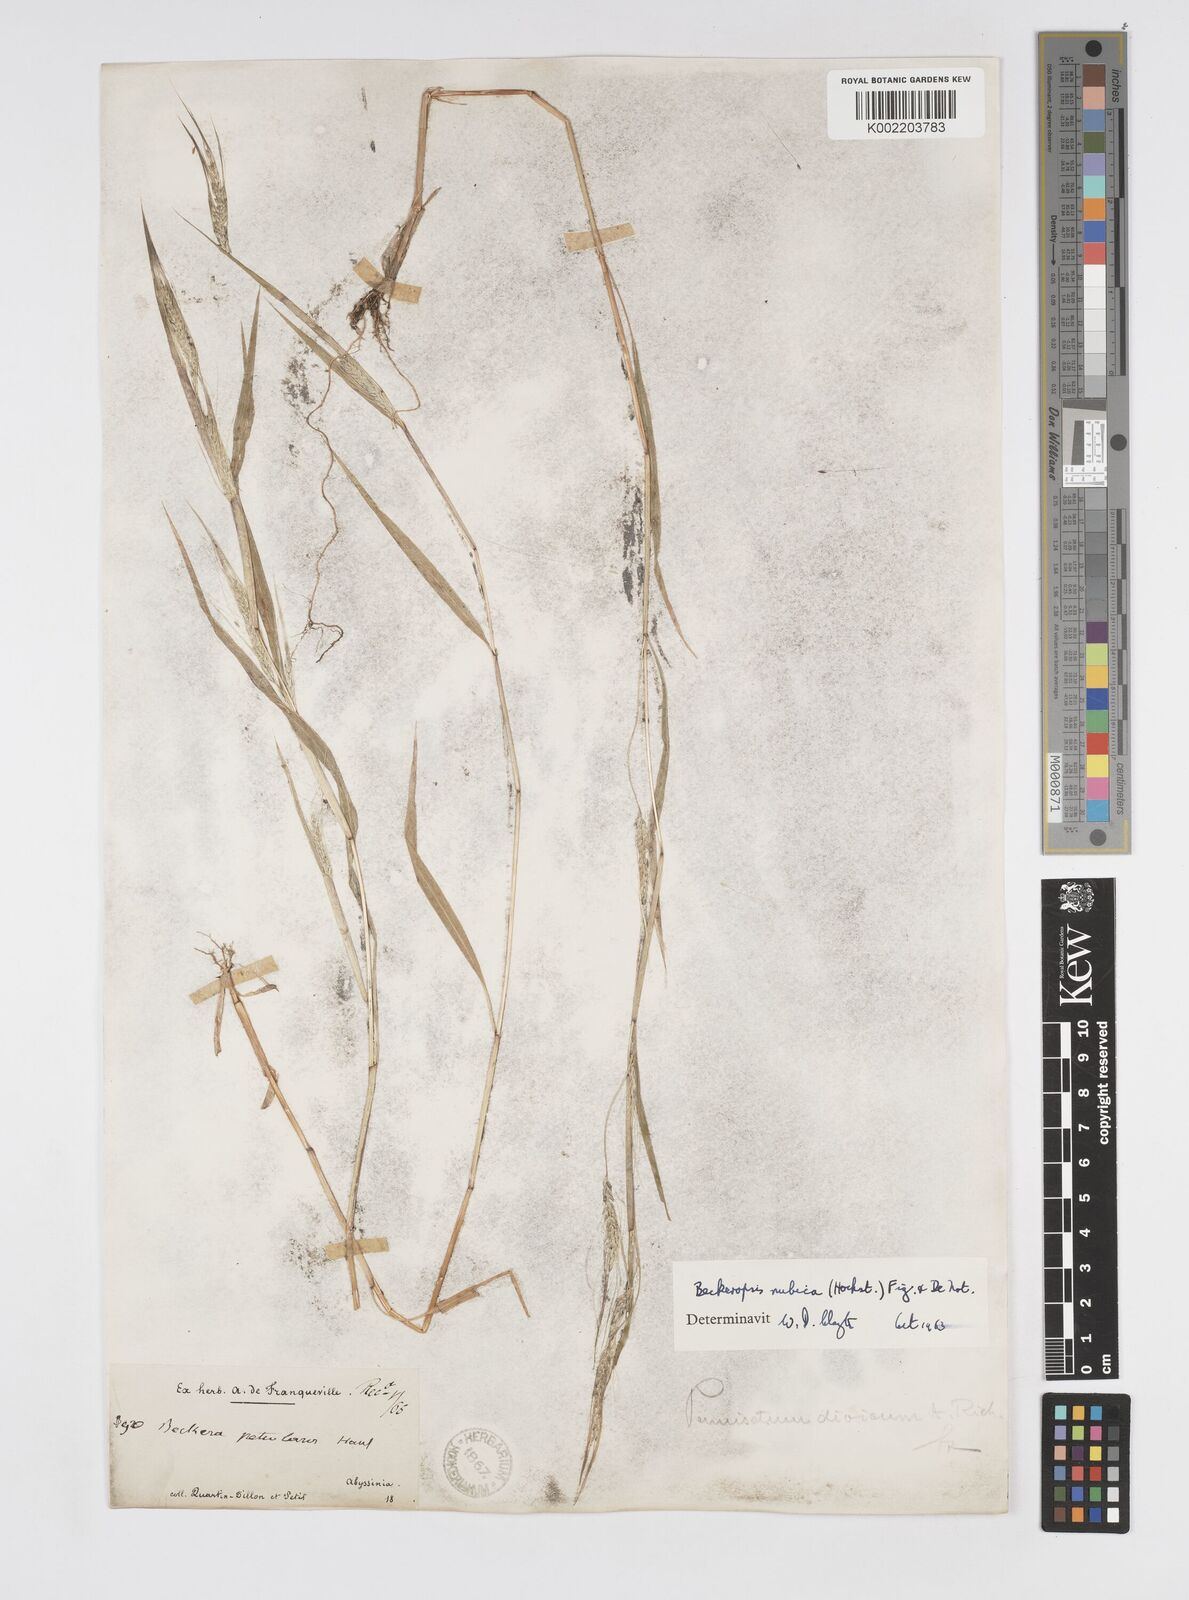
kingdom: Plantae
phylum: Tracheophyta
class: Liliopsida
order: Poales
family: Poaceae
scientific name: Poaceae
